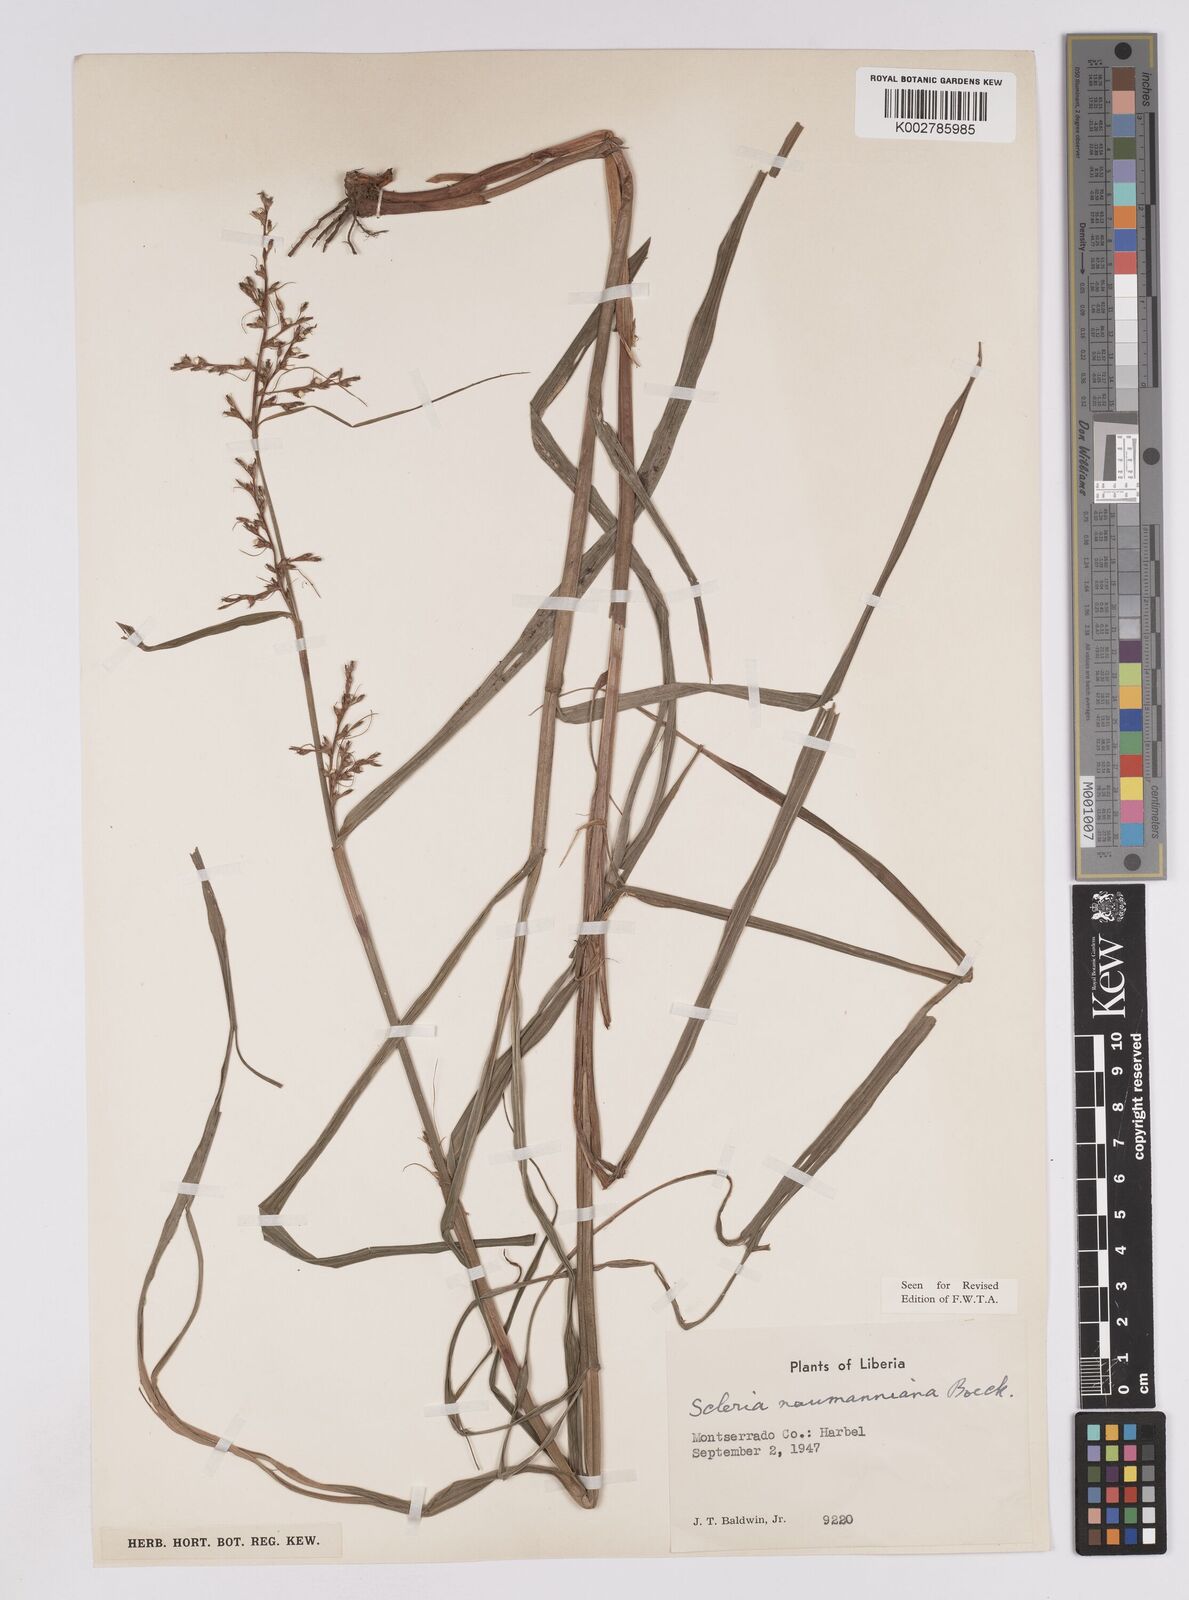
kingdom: Plantae
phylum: Tracheophyta
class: Liliopsida
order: Poales
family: Cyperaceae
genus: Scleria
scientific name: Scleria naumanniana
